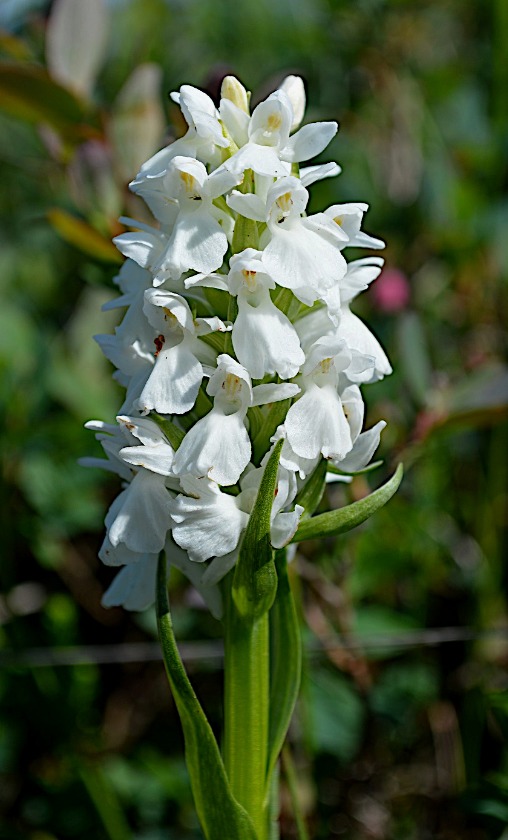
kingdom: Plantae
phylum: Tracheophyta
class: Liliopsida
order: Asparagales
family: Orchidaceae
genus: Dactylorhiza
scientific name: Dactylorhiza majalis
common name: Thy-gøgeurt
